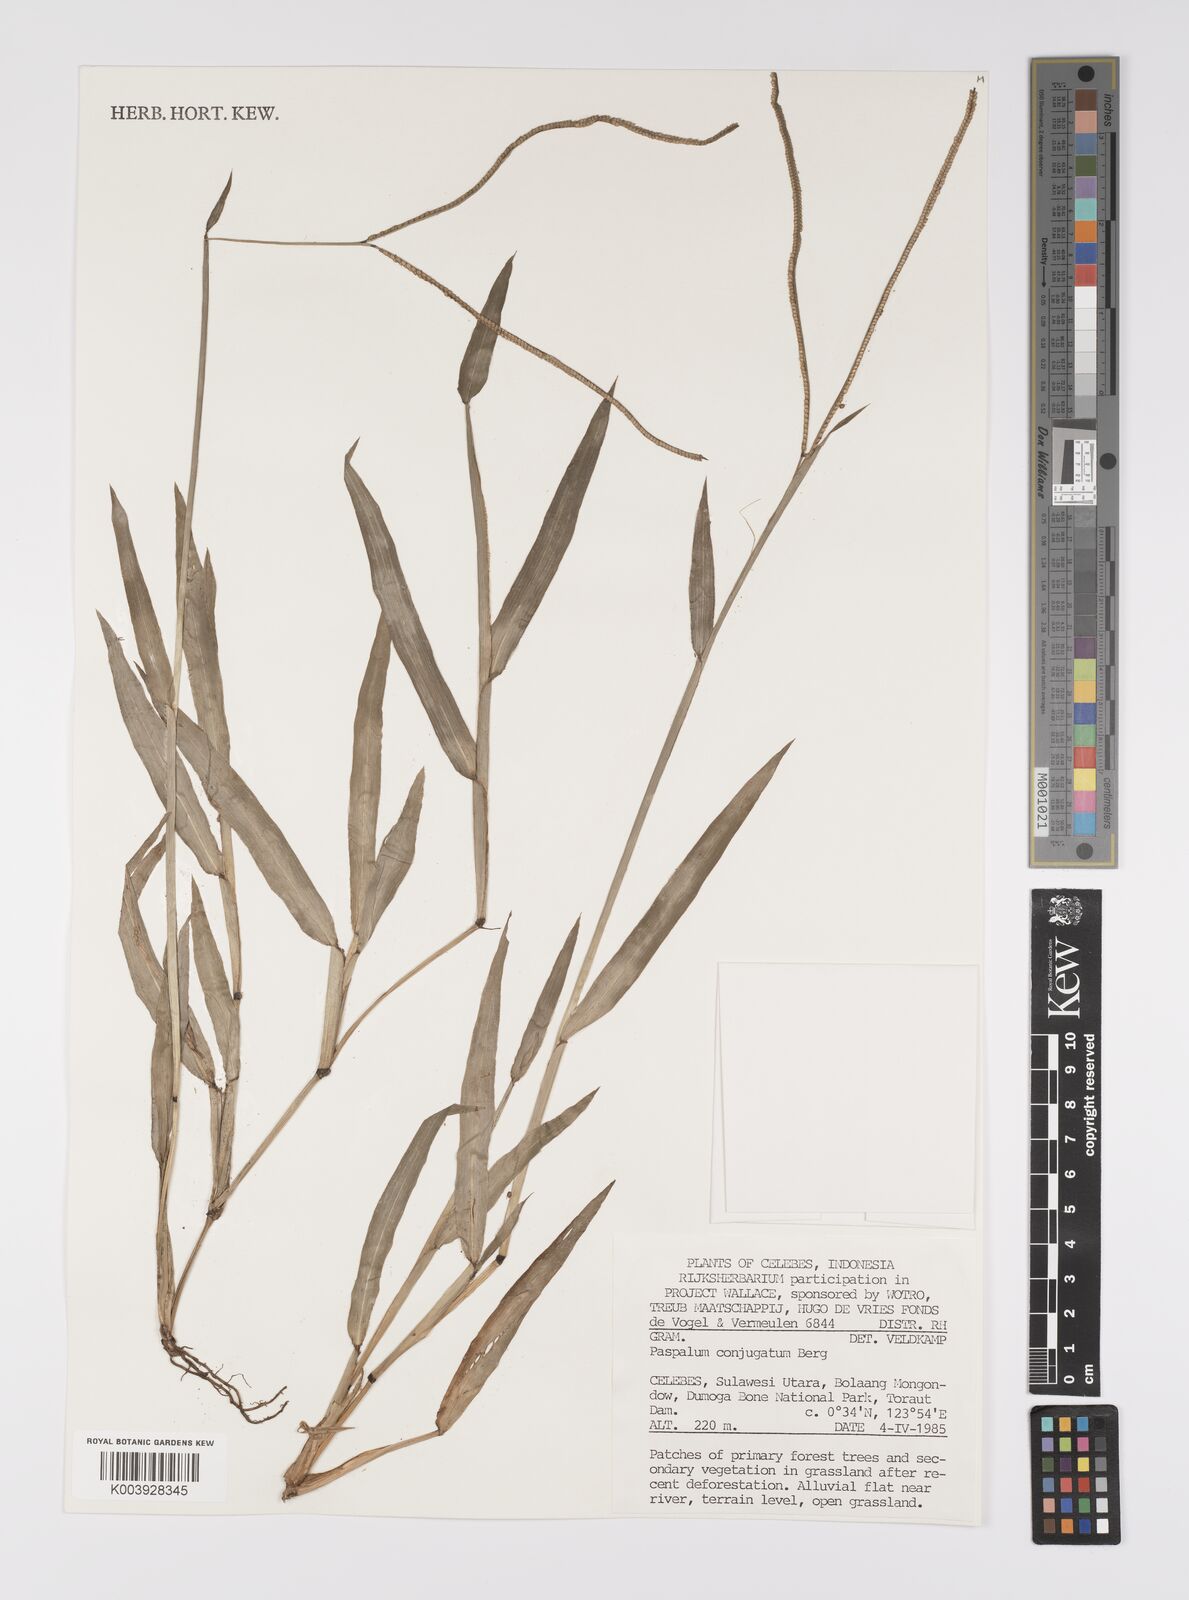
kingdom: Plantae
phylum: Tracheophyta
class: Liliopsida
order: Poales
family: Poaceae
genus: Paspalum
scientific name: Paspalum conjugatum
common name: Hilograss
